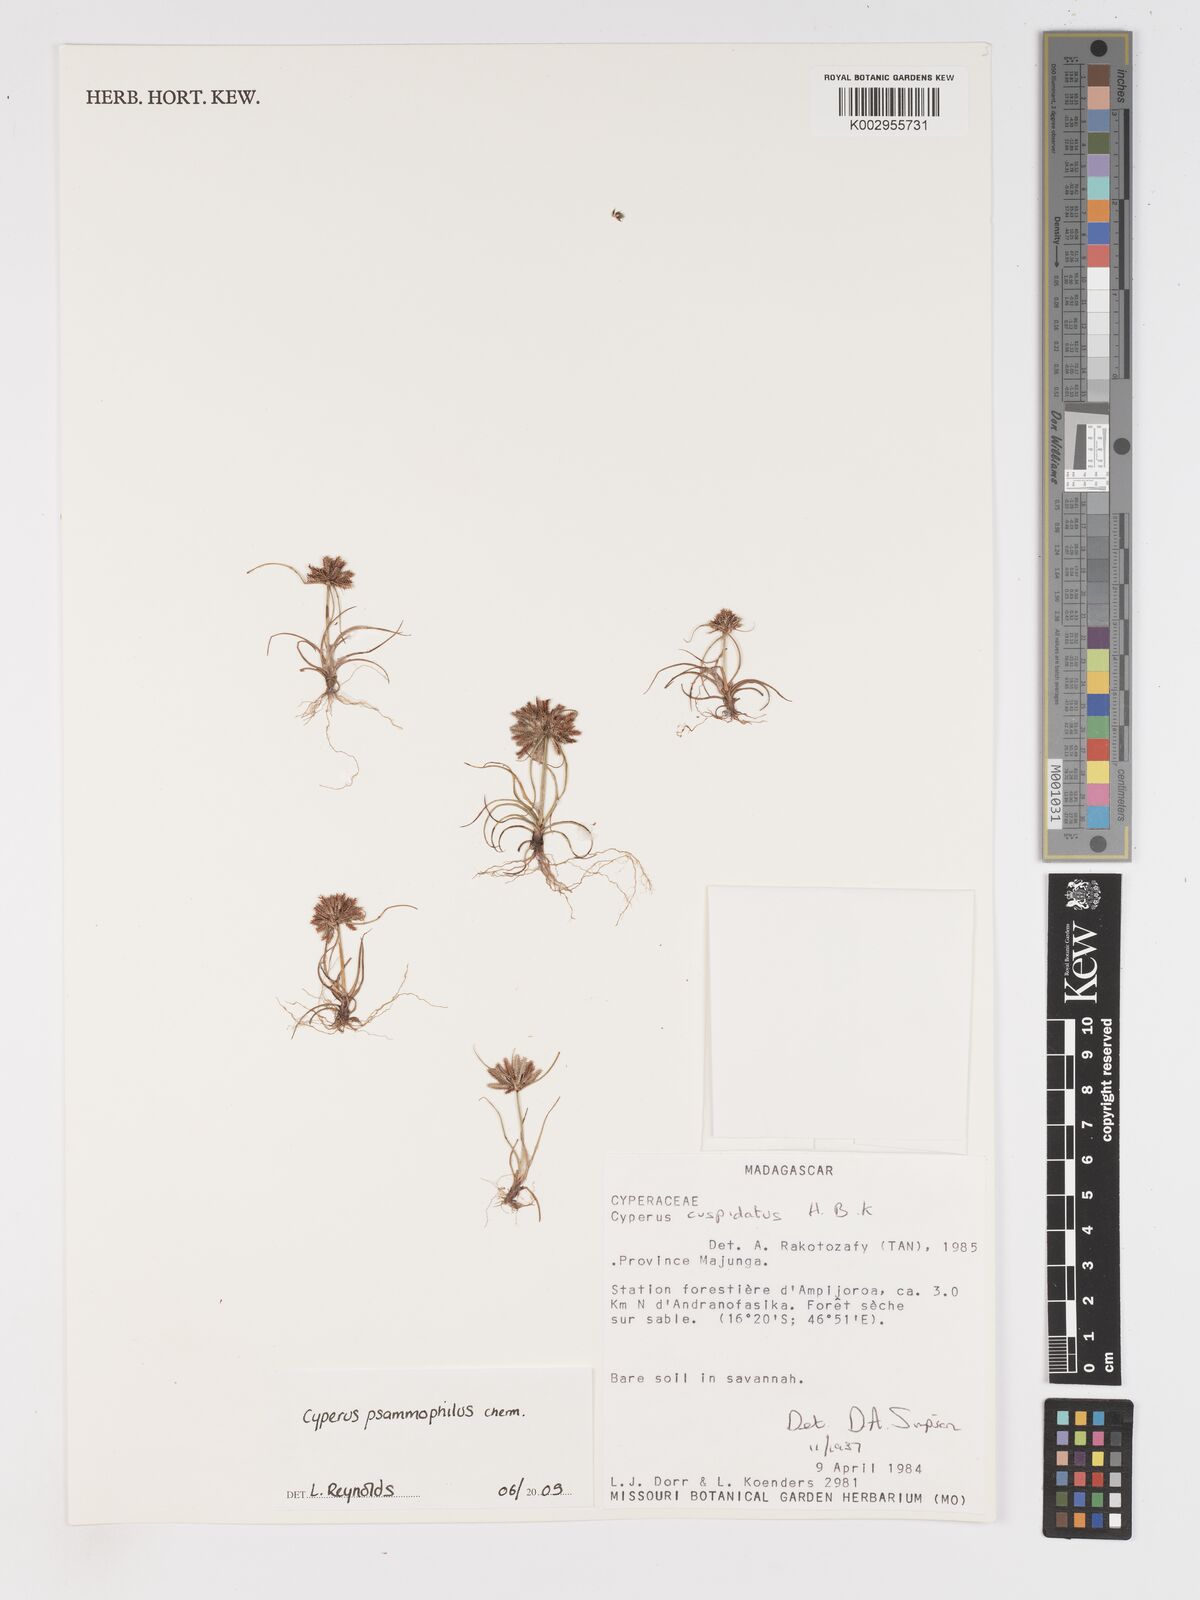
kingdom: Plantae
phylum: Tracheophyta
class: Liliopsida
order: Poales
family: Cyperaceae
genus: Cyperus
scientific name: Cyperus psammophilus
